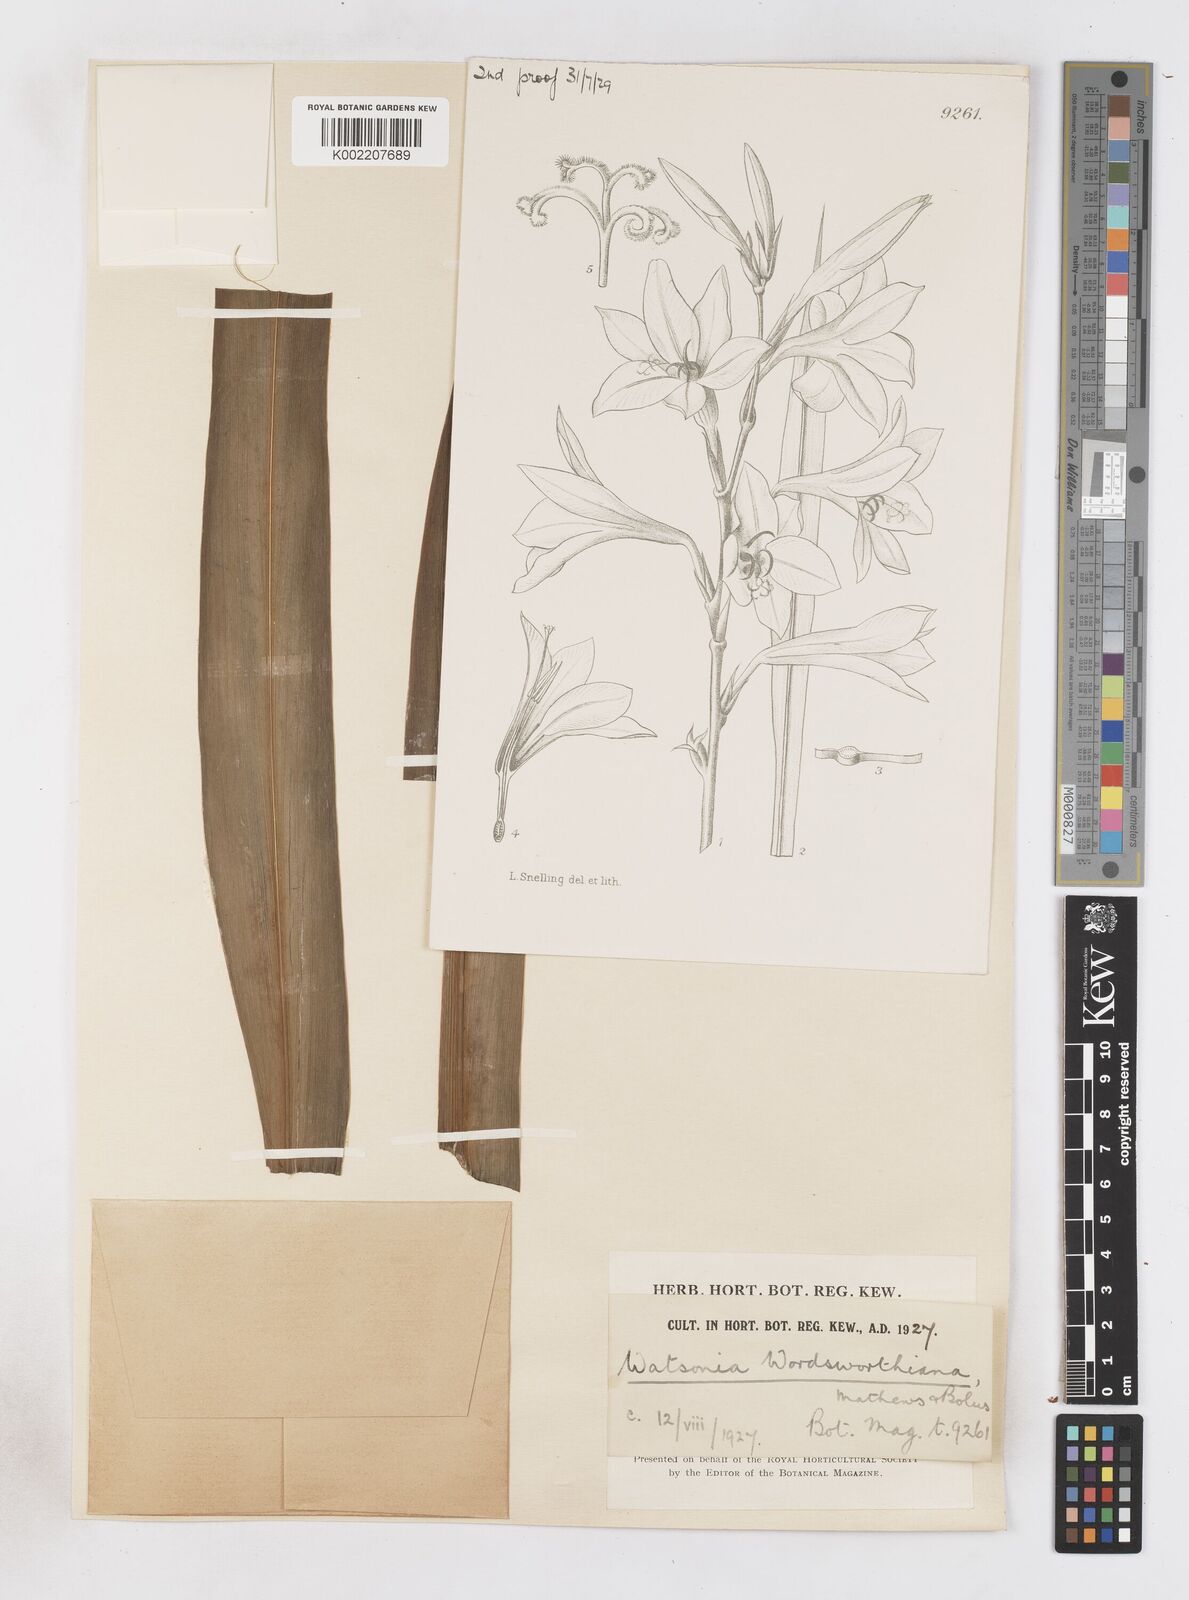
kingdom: Plantae
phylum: Tracheophyta
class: Liliopsida
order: Asparagales
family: Iridaceae
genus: Watsonia
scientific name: Watsonia meriana
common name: Bulbil bugle-lily
